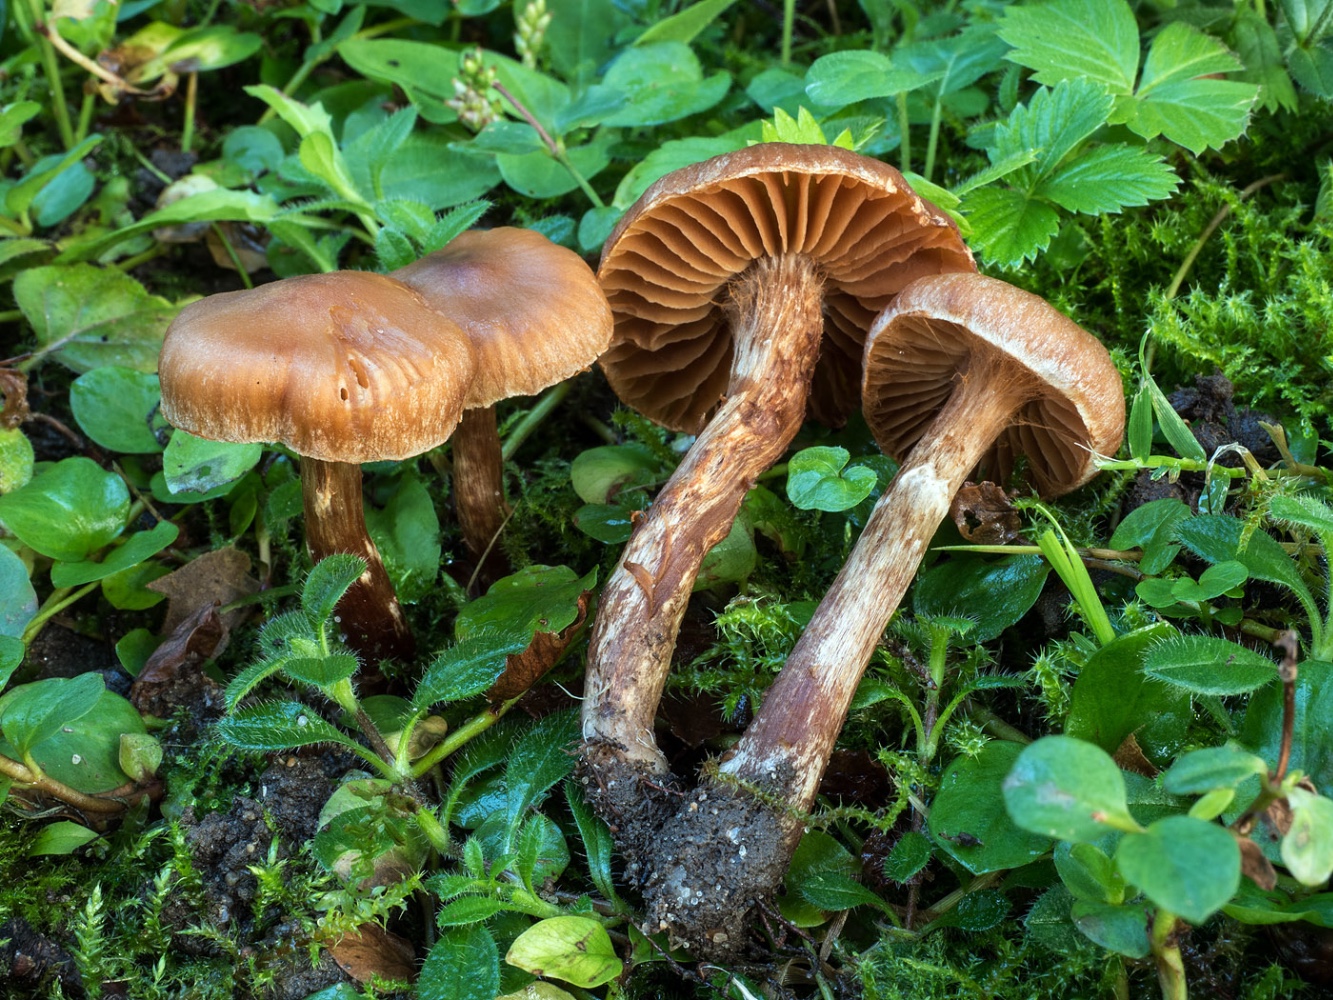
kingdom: Fungi
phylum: Basidiomycota
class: Agaricomycetes
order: Agaricales
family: Cortinariaceae
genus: Cortinarius
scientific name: Cortinarius hinnuleus
